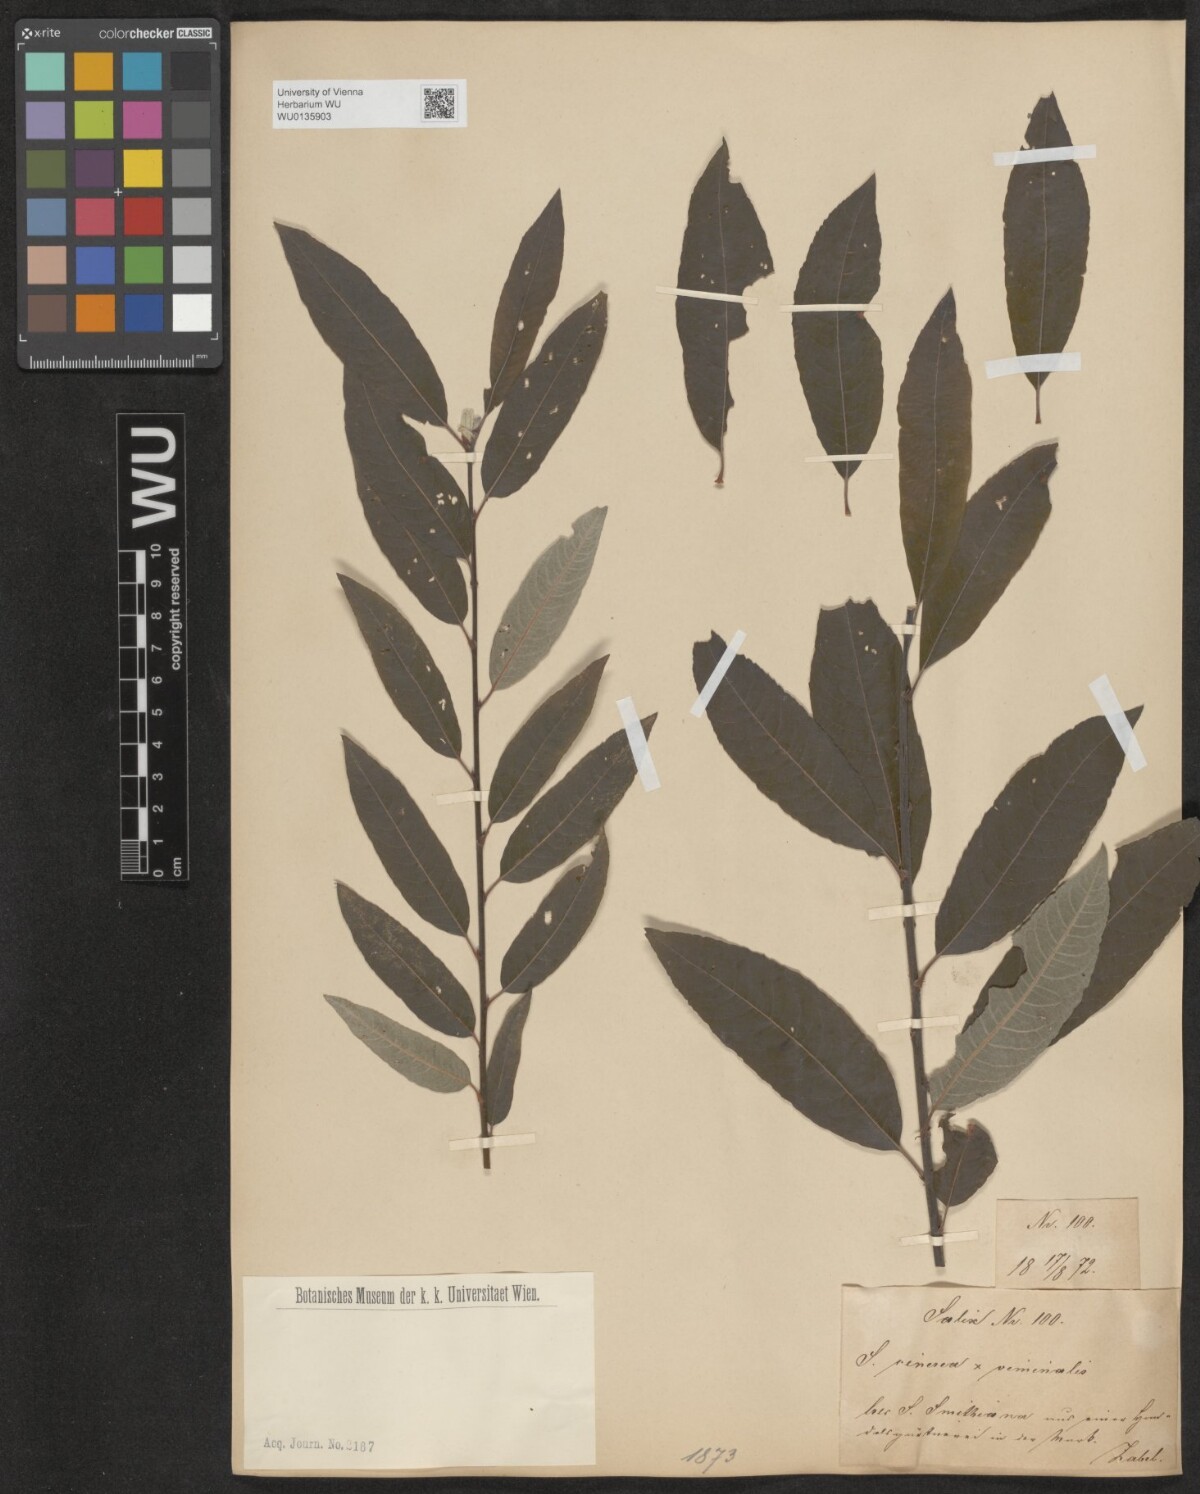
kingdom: Plantae
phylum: Tracheophyta
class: Magnoliopsida
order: Malpighiales
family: Salicaceae
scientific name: Salicaceae
